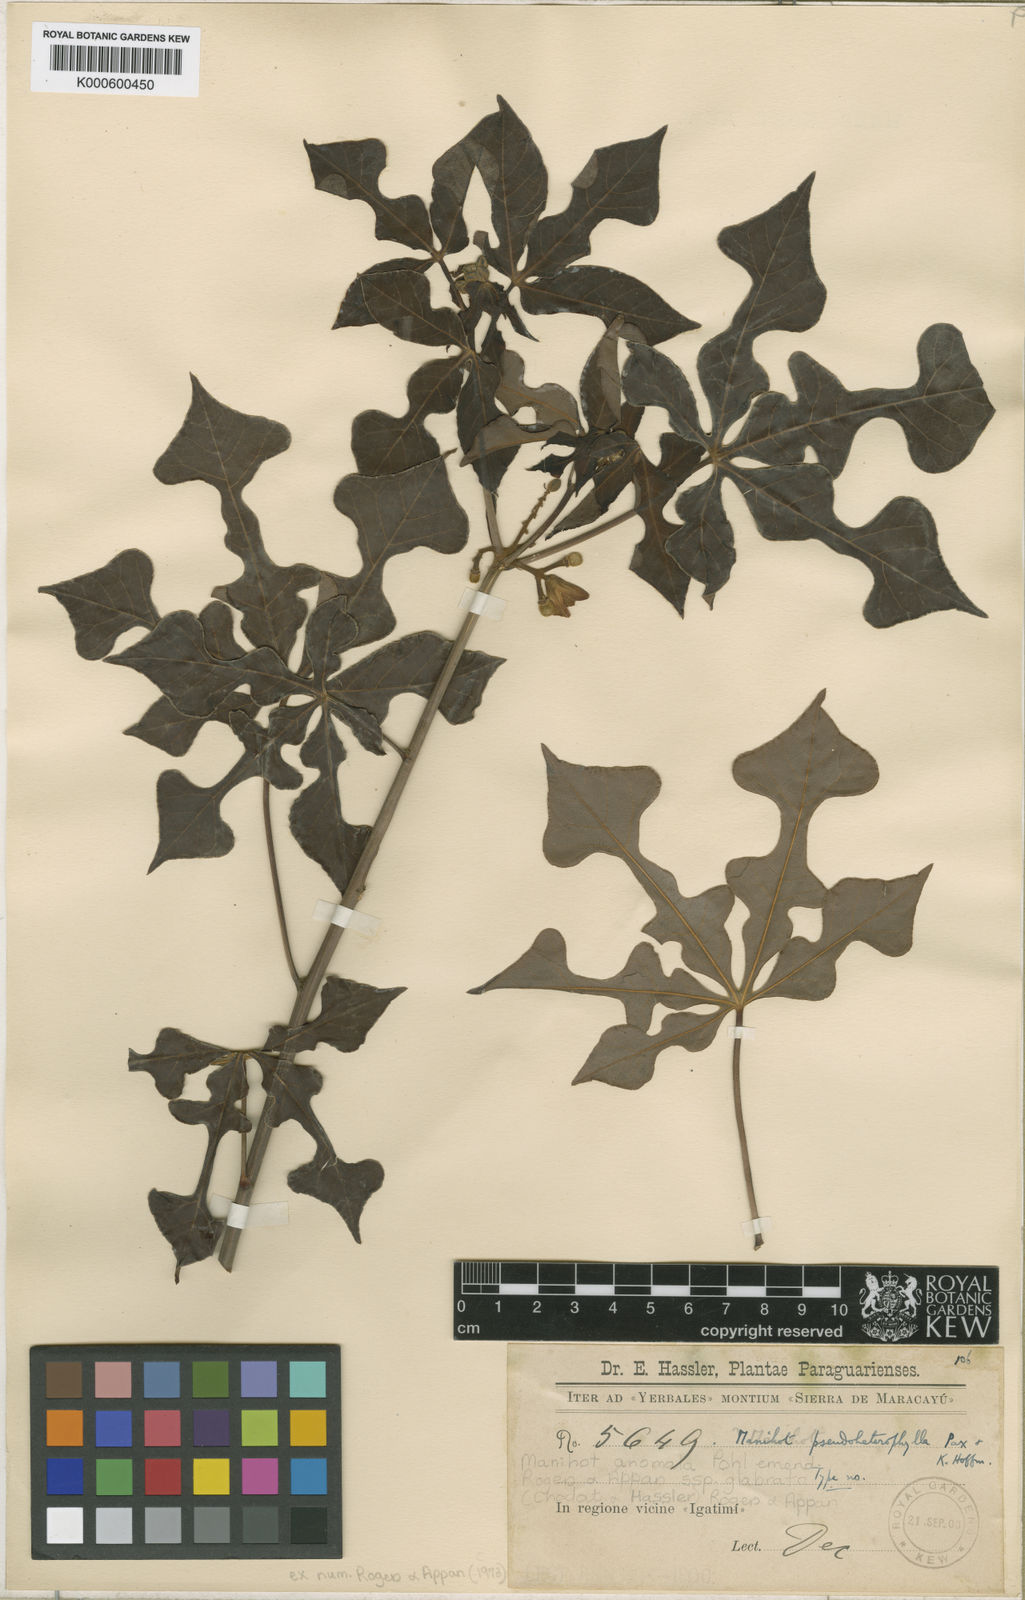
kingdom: Plantae
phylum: Tracheophyta
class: Magnoliopsida
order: Malpighiales
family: Euphorbiaceae
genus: Manihot
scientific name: Manihot anomala
